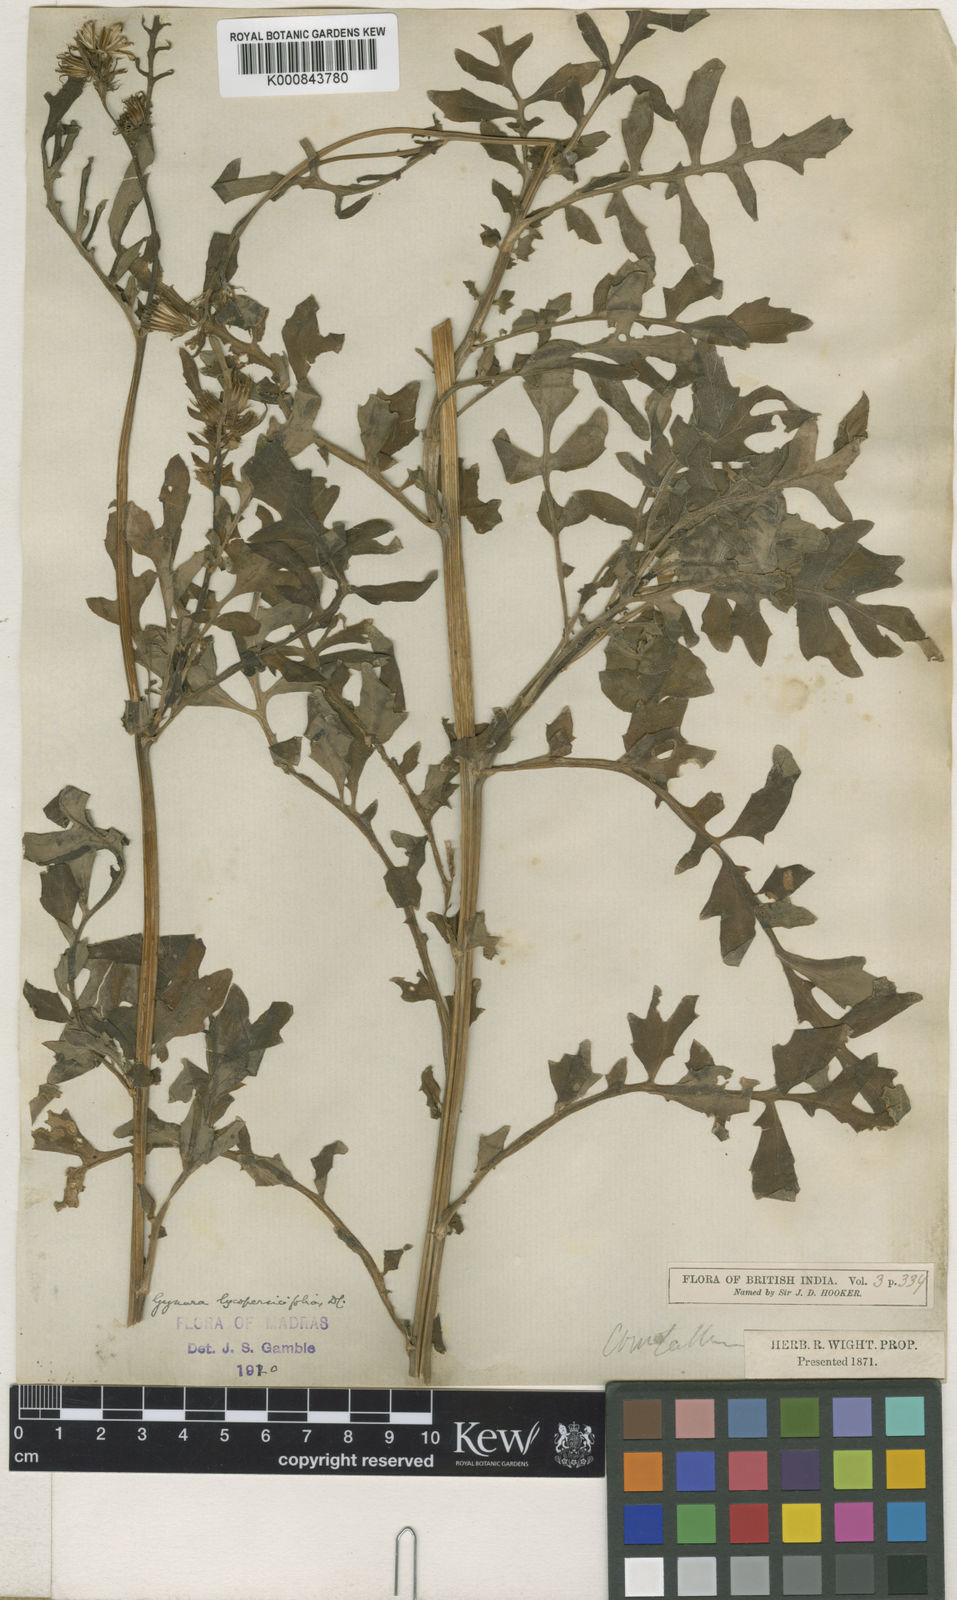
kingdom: Plantae
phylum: Tracheophyta
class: Magnoliopsida
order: Asterales
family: Asteraceae
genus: Gynura
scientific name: Gynura lycopersicifolia
